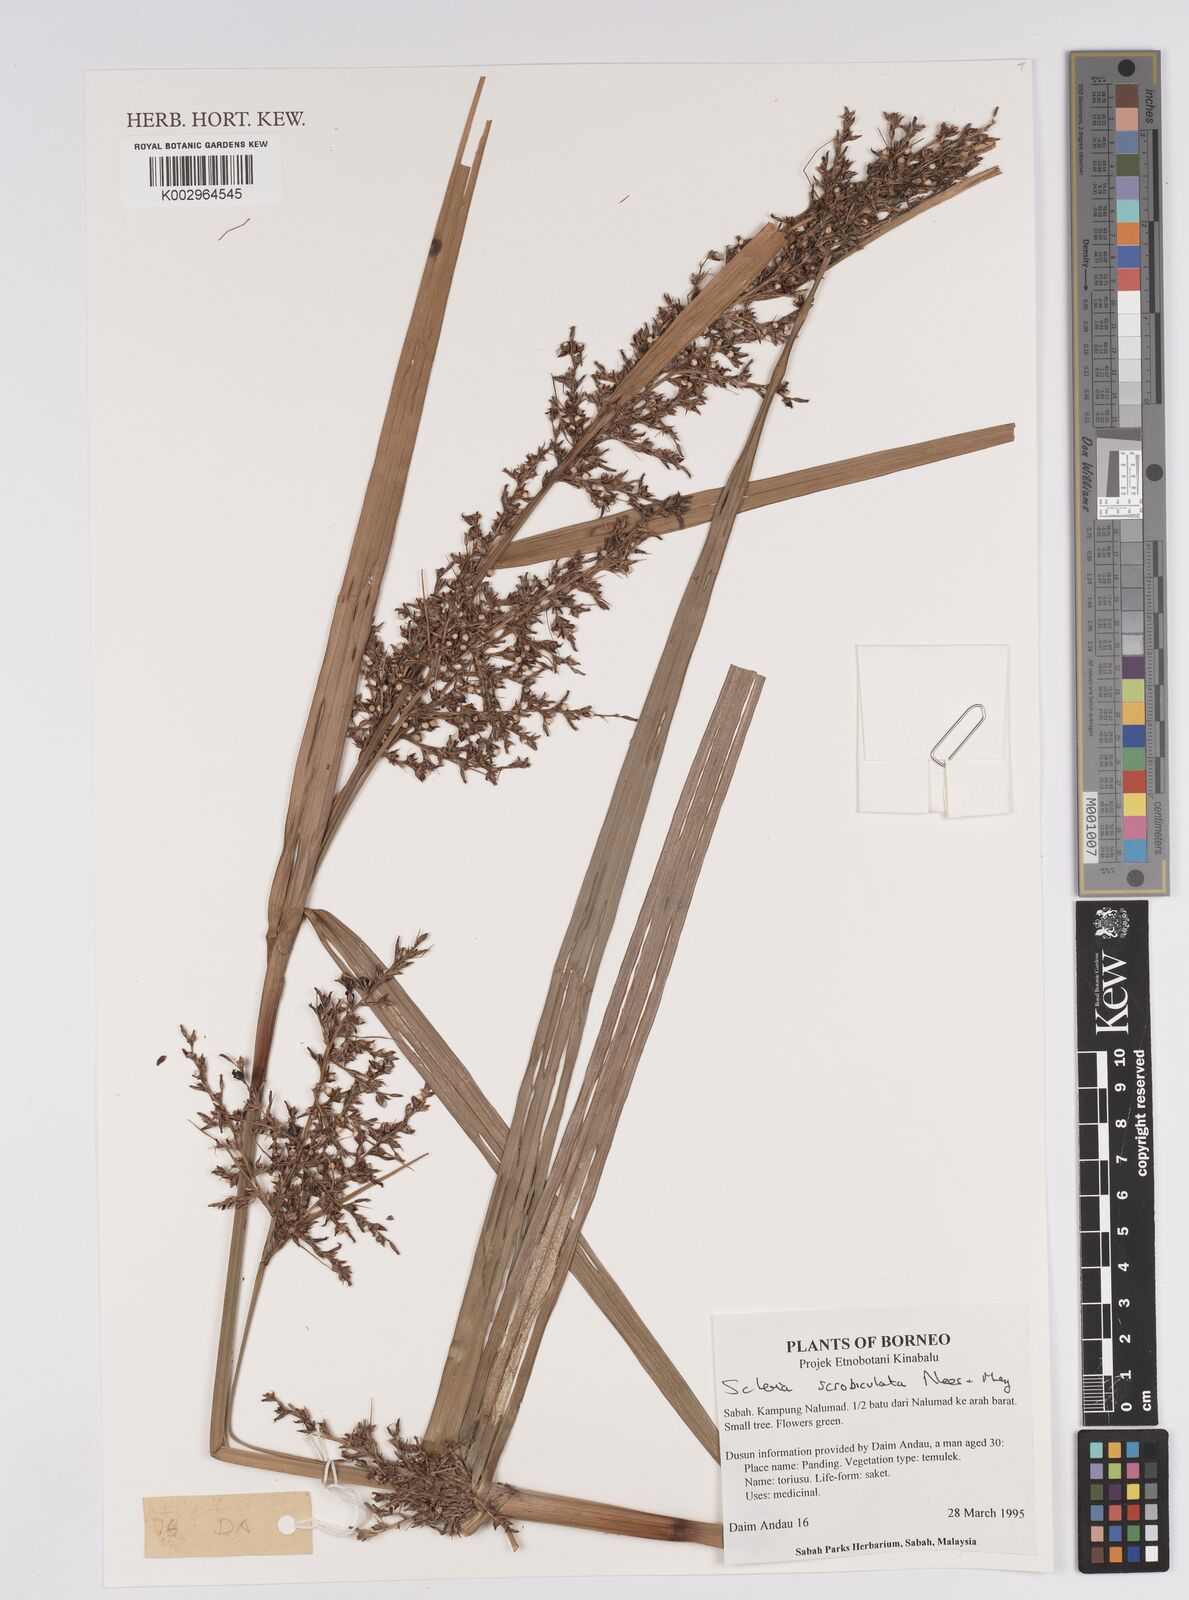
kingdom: Plantae
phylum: Tracheophyta
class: Liliopsida
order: Poales
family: Cyperaceae
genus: Scleria
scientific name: Scleria scrobiculata
